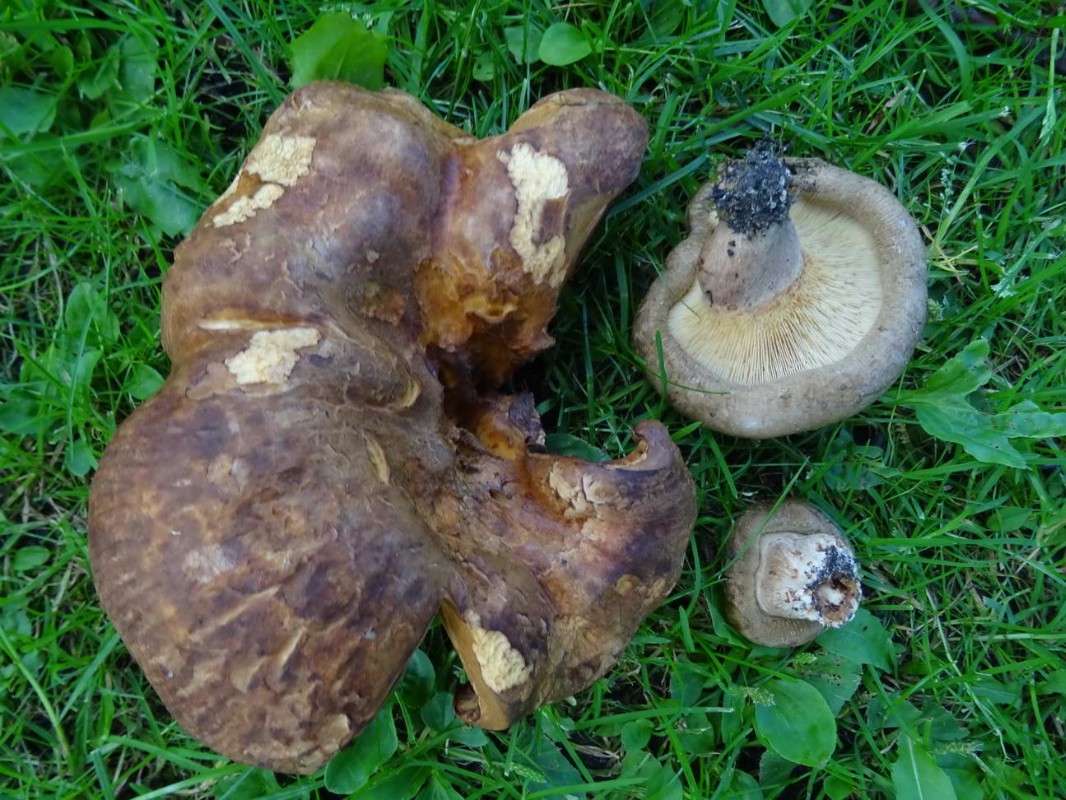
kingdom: Fungi
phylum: Basidiomycota
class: Agaricomycetes
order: Boletales
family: Paxillaceae
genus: Paxillus
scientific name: Paxillus ammoniavirescens
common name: olivensporet netbladhat
